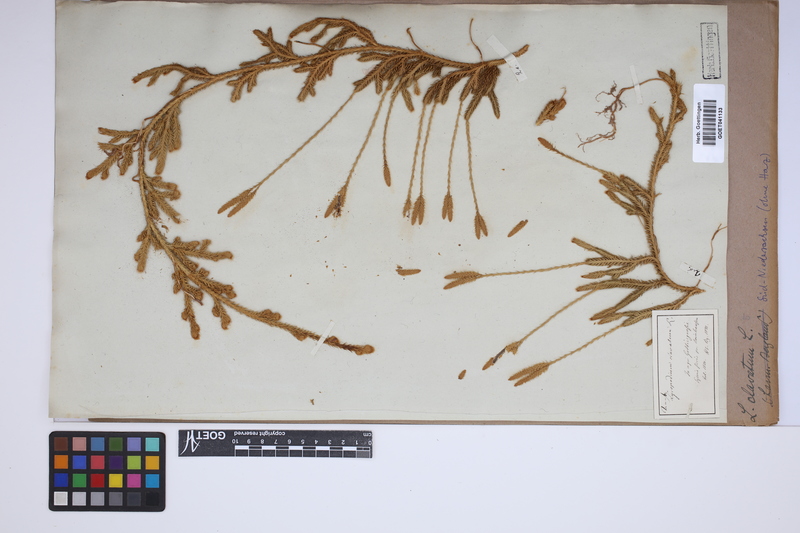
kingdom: Plantae
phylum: Tracheophyta
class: Lycopodiopsida
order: Lycopodiales
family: Lycopodiaceae
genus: Lycopodium
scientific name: Lycopodium clavatum
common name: Stag's-horn clubmoss
